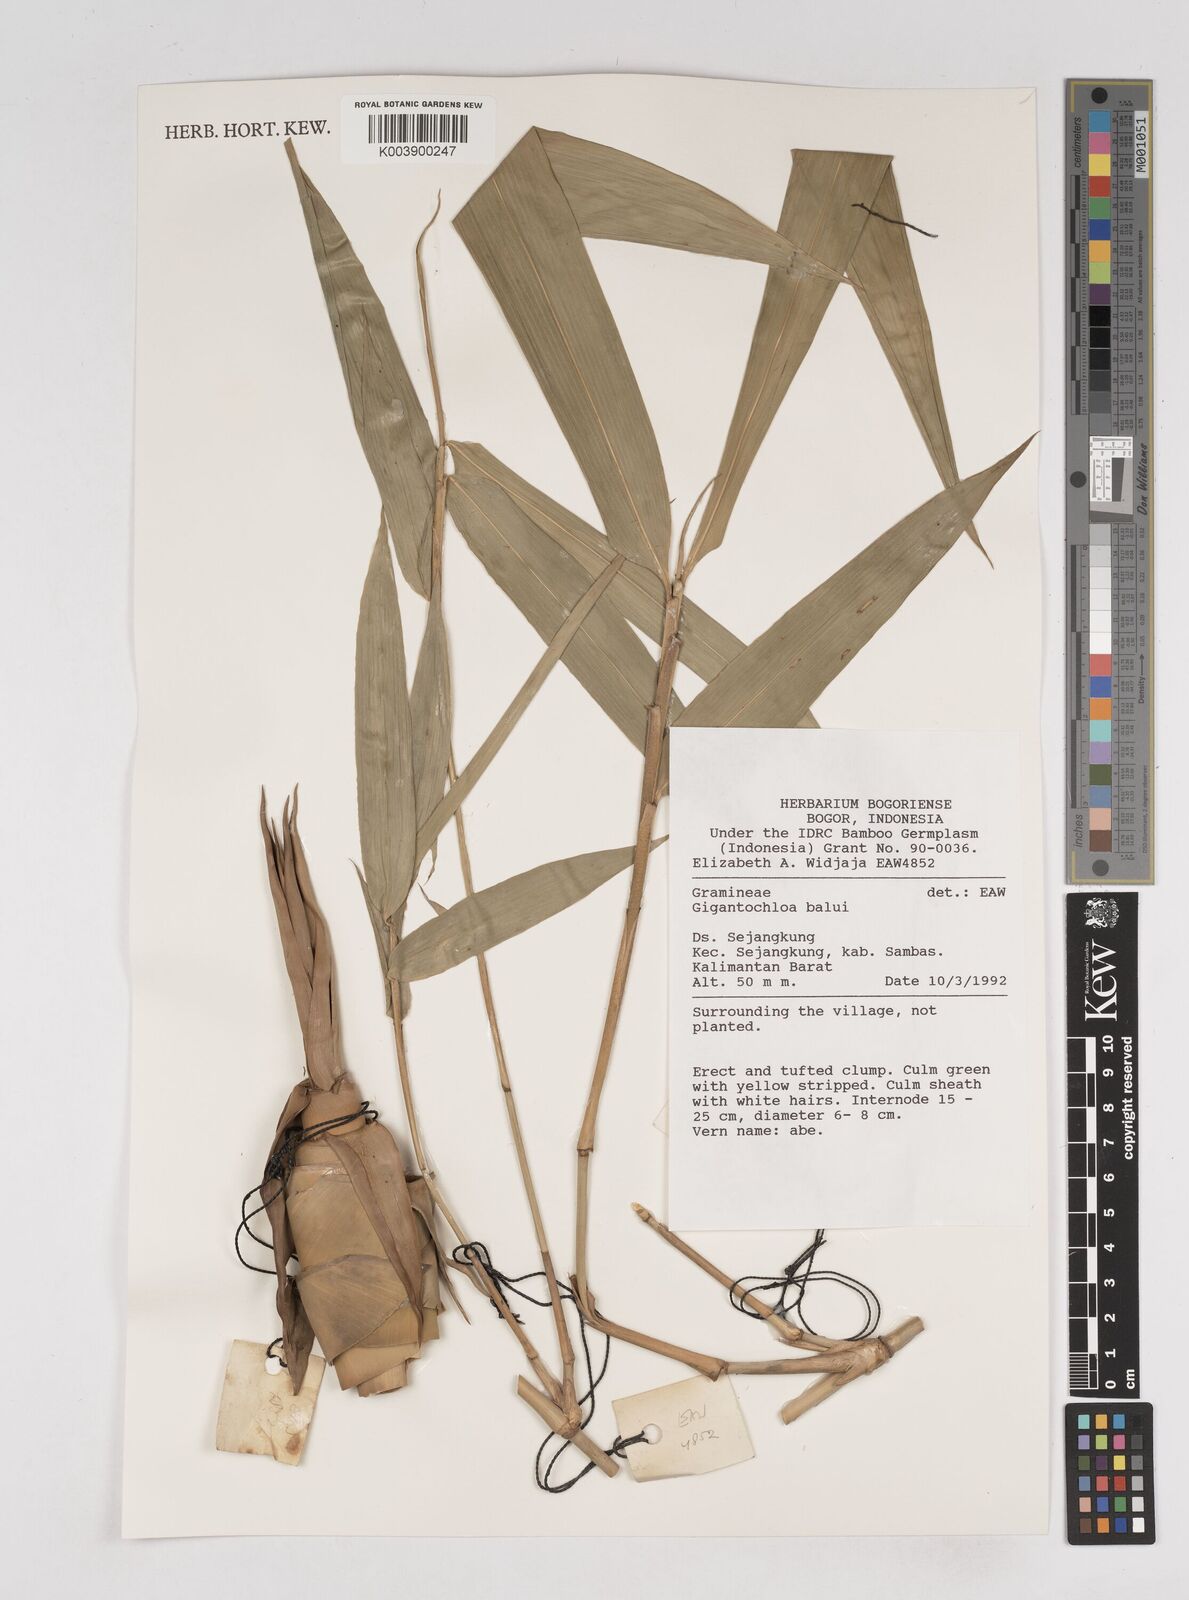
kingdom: Plantae
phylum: Tracheophyta
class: Liliopsida
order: Poales
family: Poaceae
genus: Gigantochloa
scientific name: Gigantochloa balui
